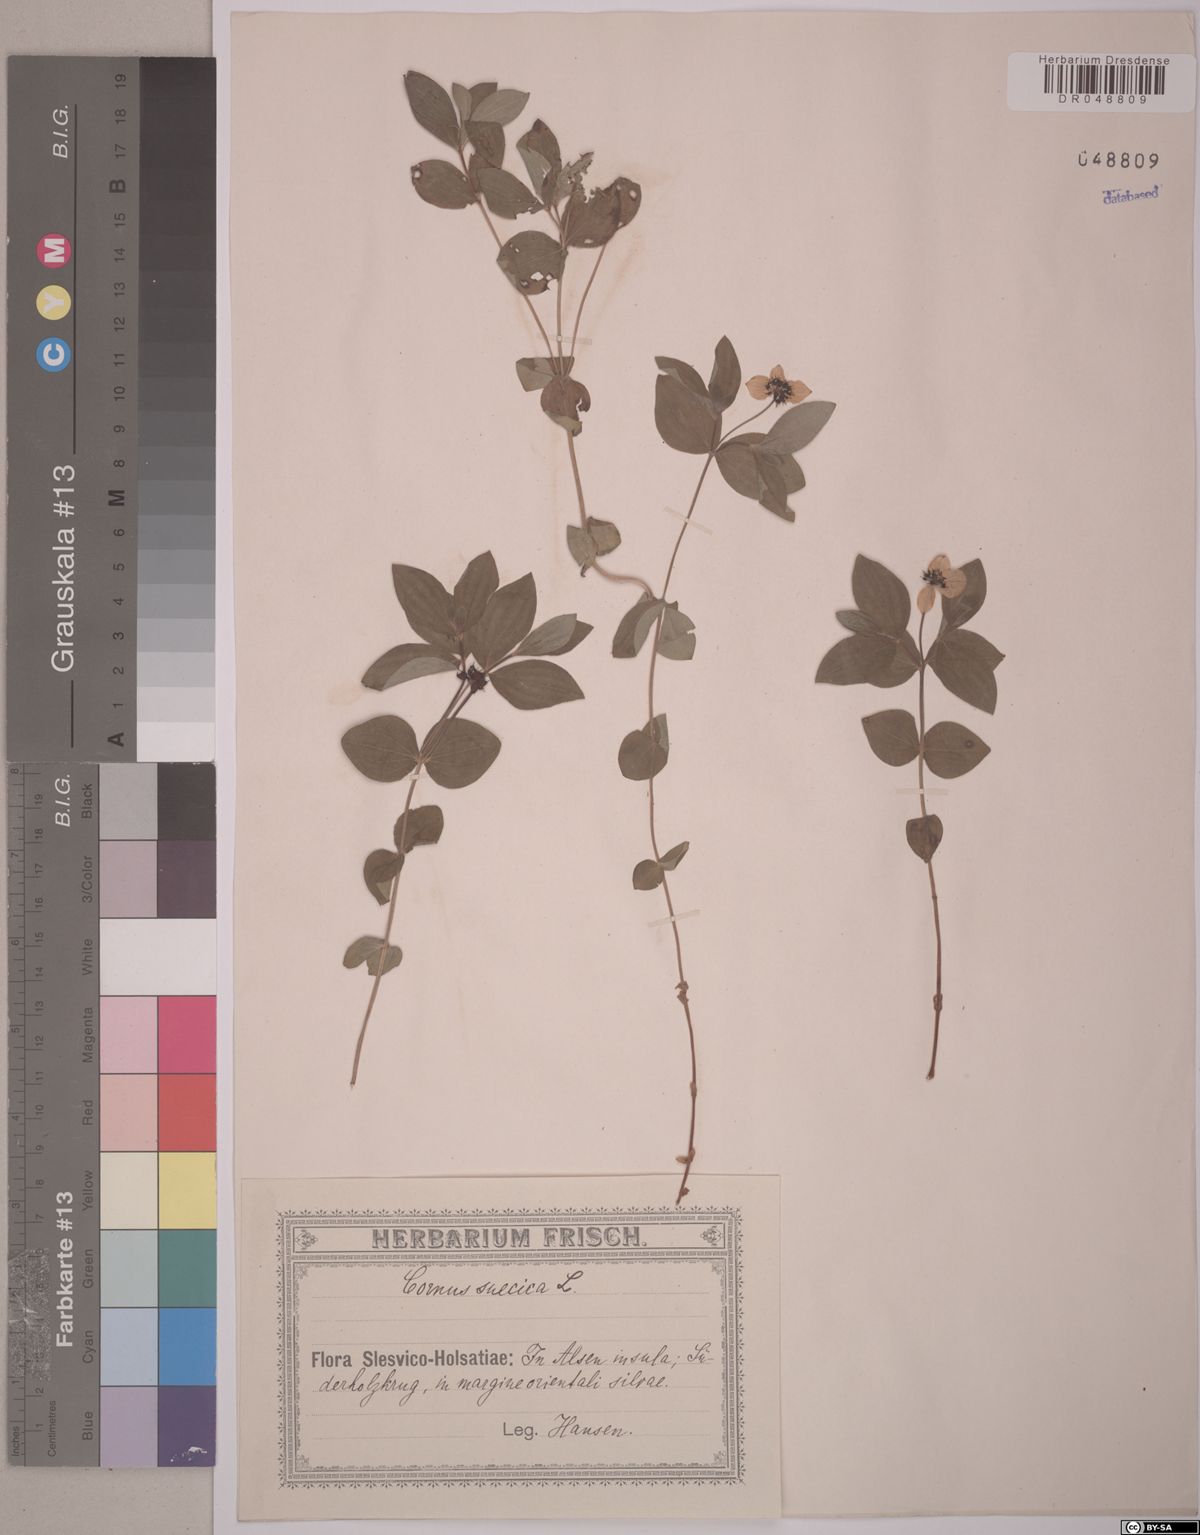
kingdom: Plantae
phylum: Tracheophyta
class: Magnoliopsida
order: Cornales
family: Cornaceae
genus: Cornus
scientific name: Cornus suecica
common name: Dwarf cornel
